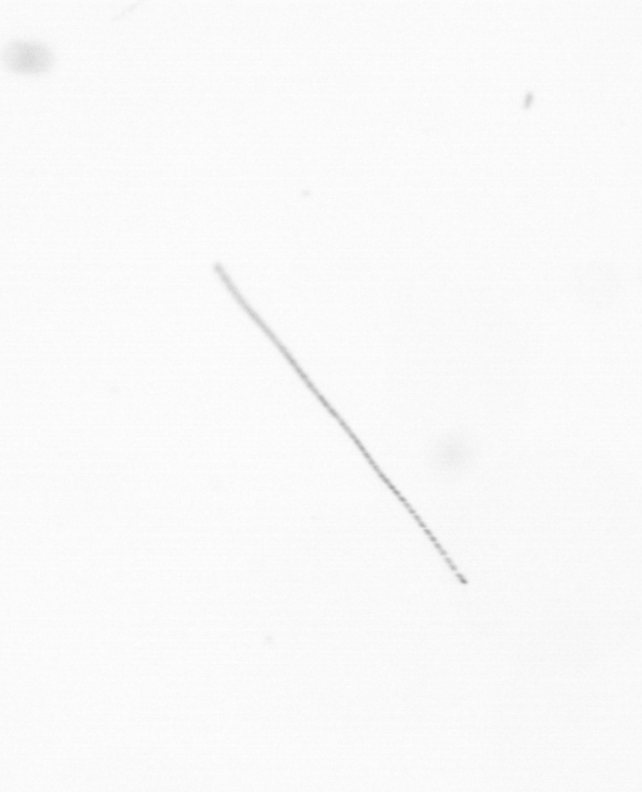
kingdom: Chromista
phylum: Ochrophyta
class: Bacillariophyceae
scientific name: Bacillariophyceae
